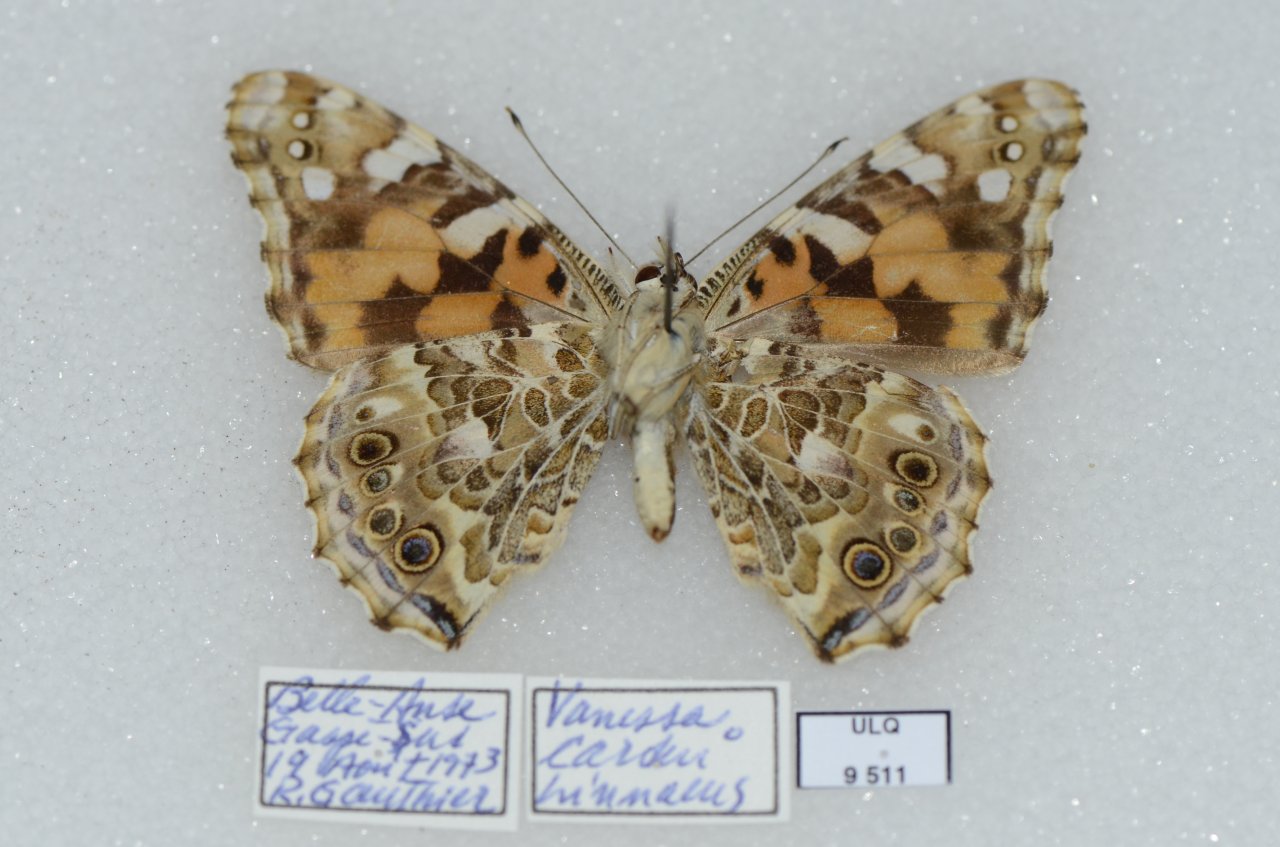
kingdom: Animalia
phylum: Arthropoda
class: Insecta
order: Lepidoptera
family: Nymphalidae
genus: Vanessa
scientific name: Vanessa cardui
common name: Painted Lady
